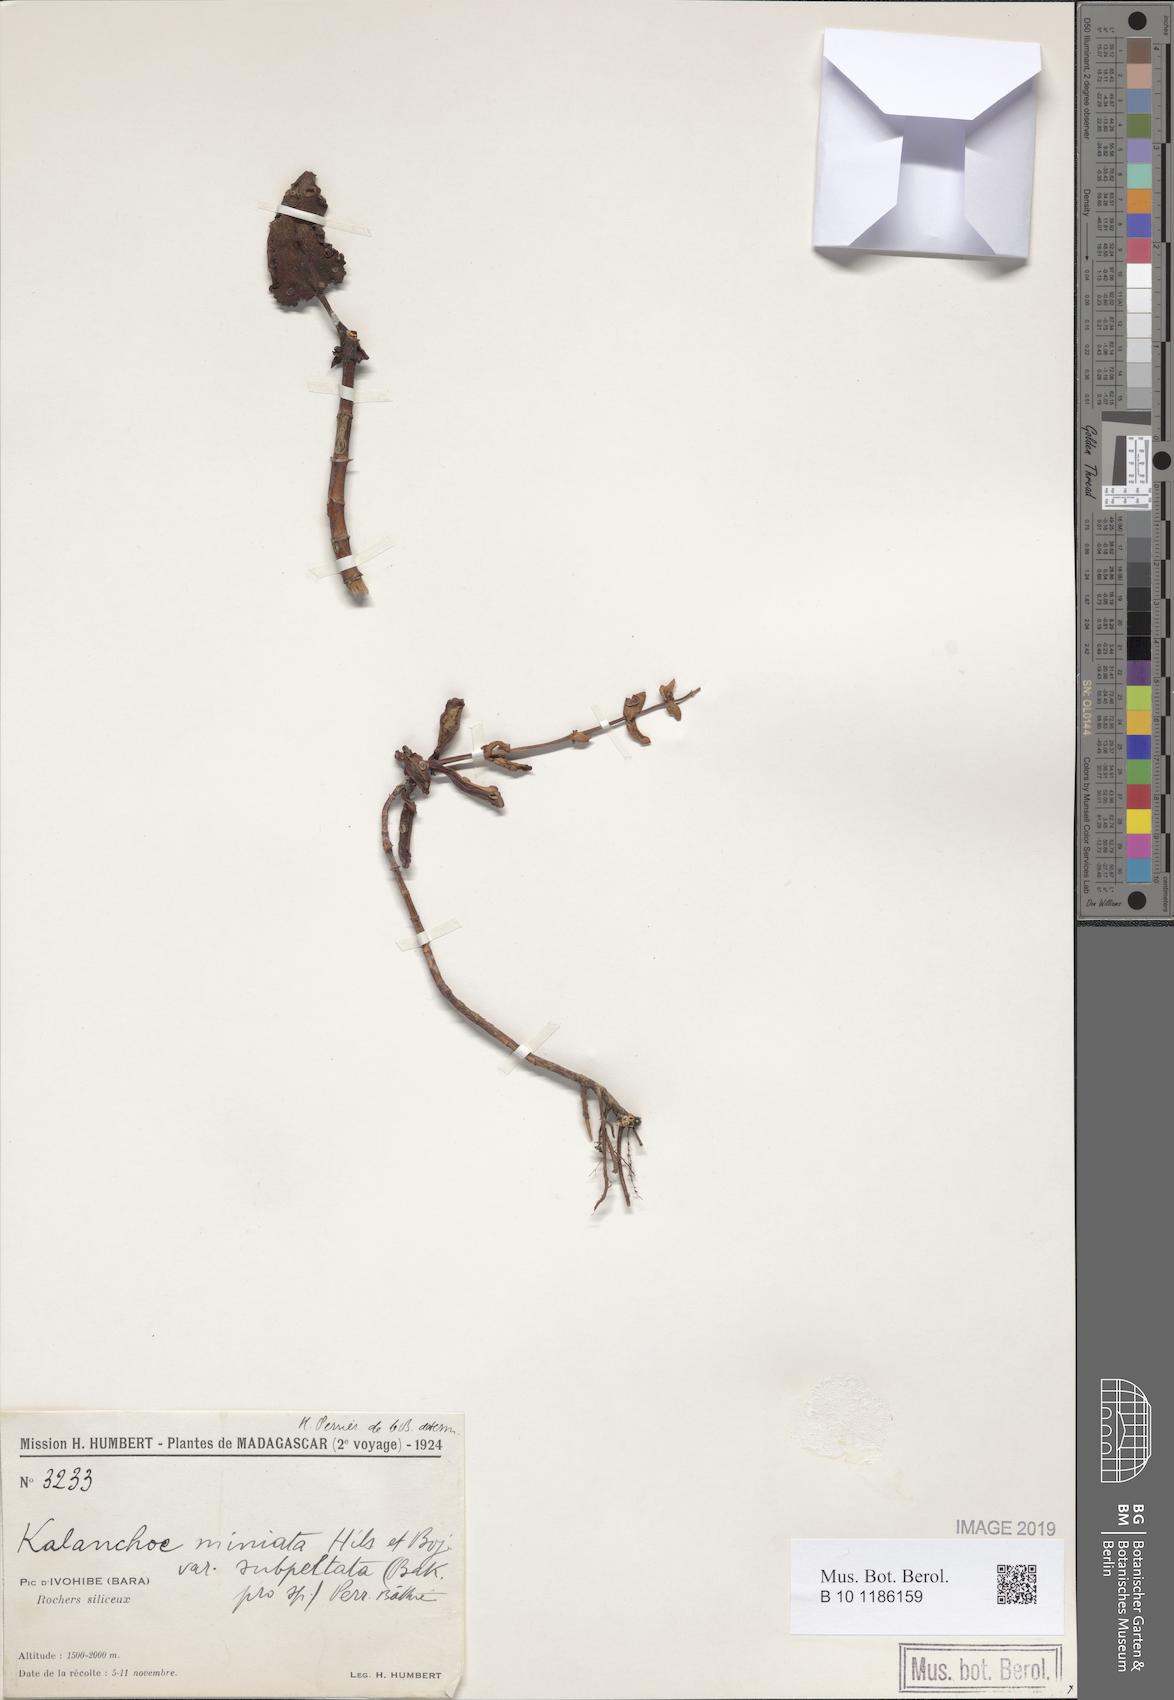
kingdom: Plantae
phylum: Tracheophyta
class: Magnoliopsida
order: Saxifragales
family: Crassulaceae
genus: Kalanchoe
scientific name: Kalanchoe miniata
